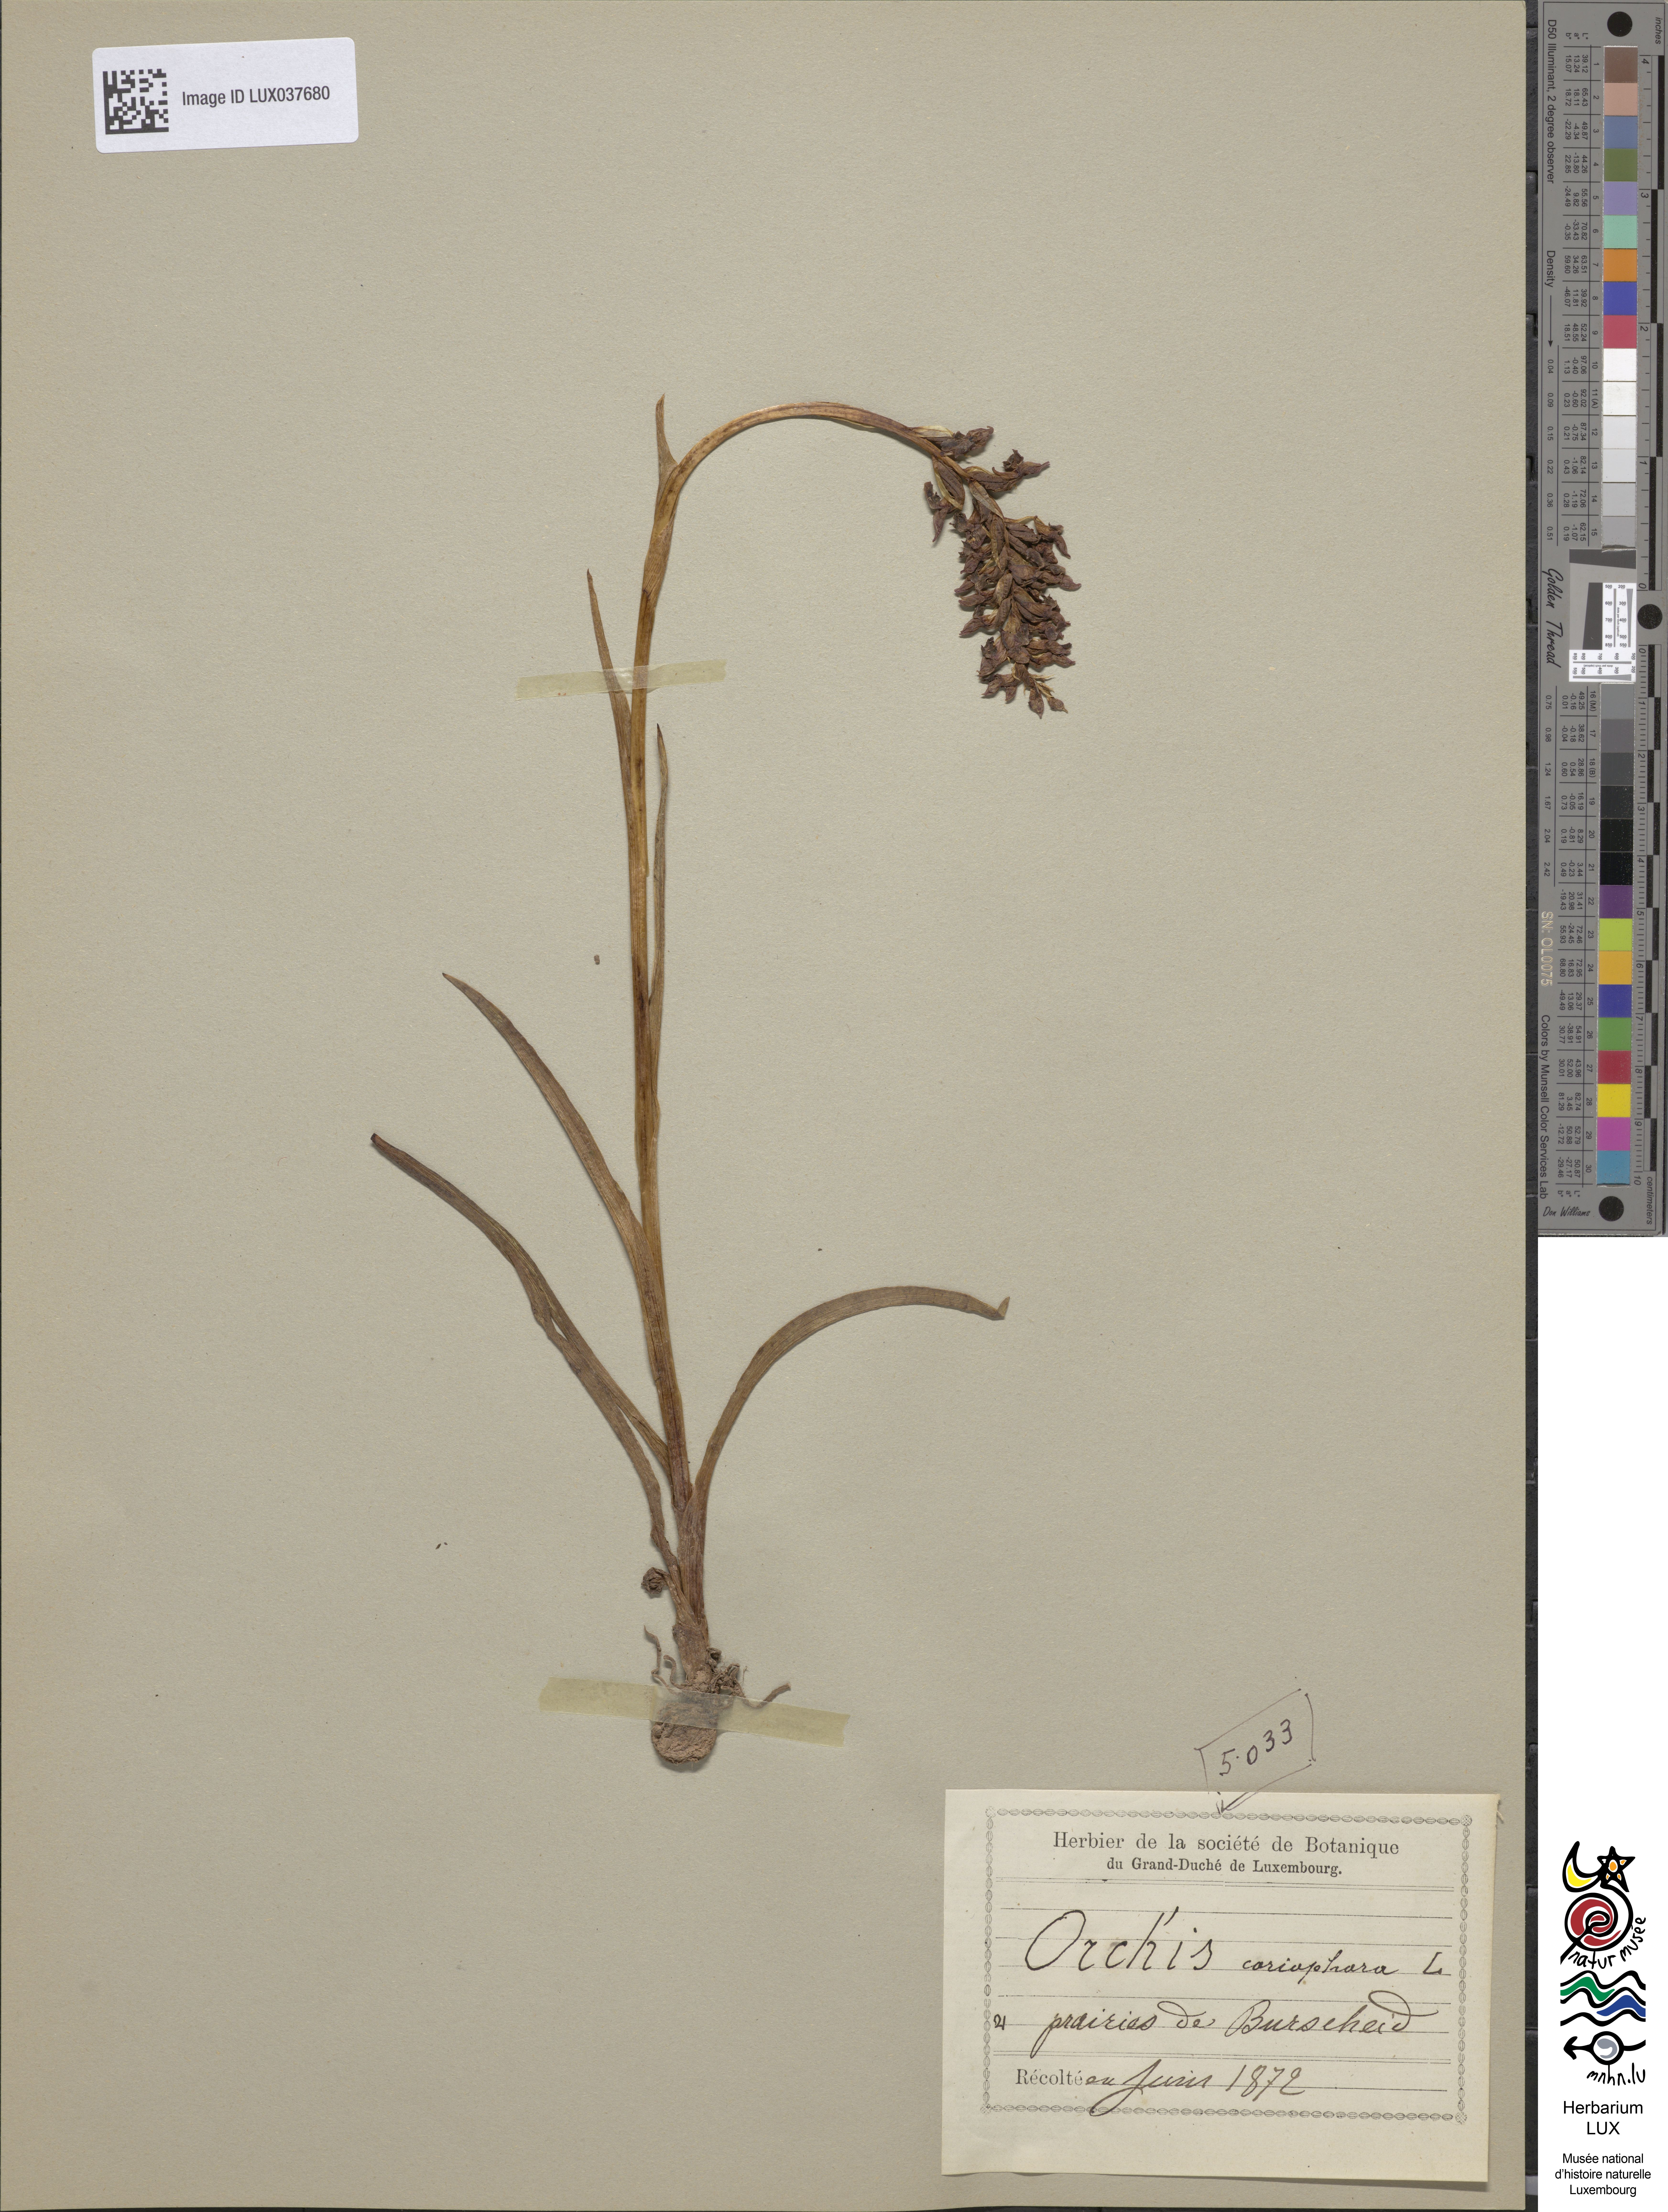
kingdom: Plantae
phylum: Tracheophyta
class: Liliopsida
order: Asparagales
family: Orchidaceae
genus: Anacamptis
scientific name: Anacamptis coriophora
